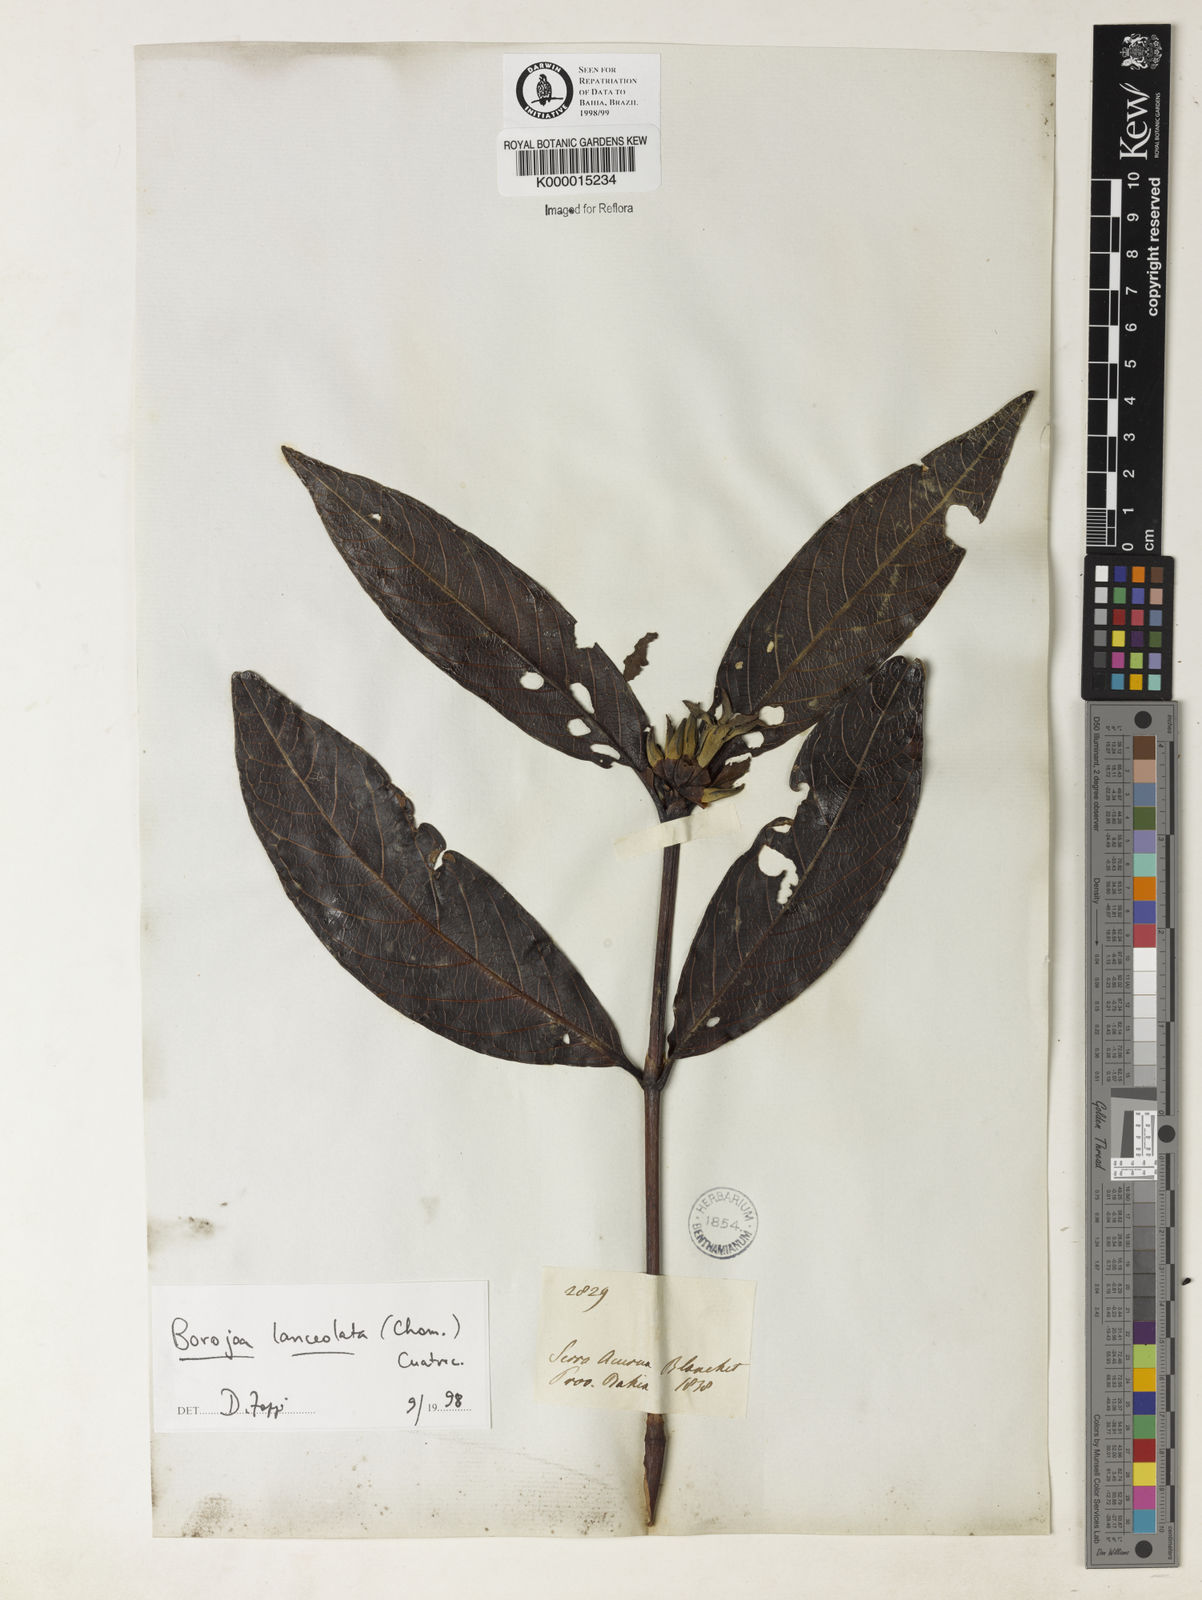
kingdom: Plantae
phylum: Tracheophyta
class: Magnoliopsida
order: Gentianales
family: Rubiaceae
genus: Alibertia
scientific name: Alibertia edulis
